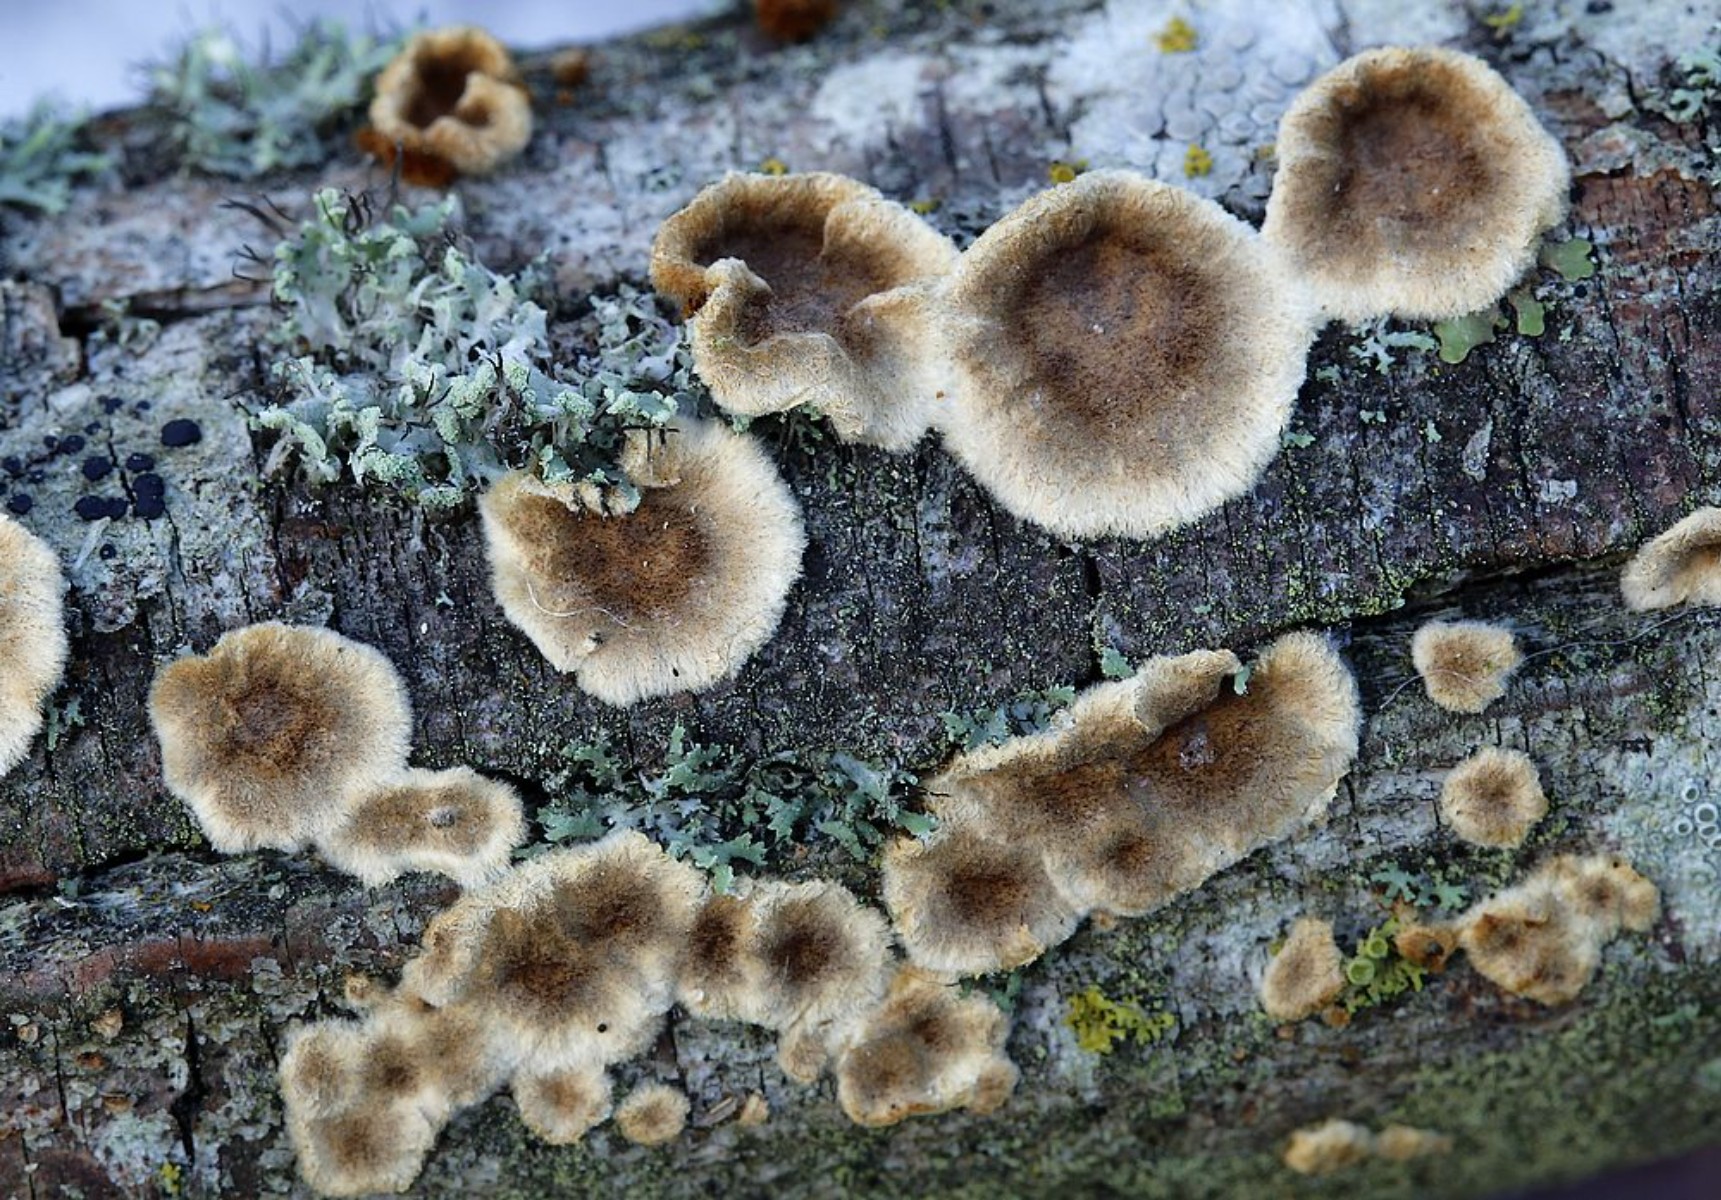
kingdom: Fungi
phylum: Basidiomycota
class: Agaricomycetes
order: Hymenochaetales
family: Hymenochaetaceae
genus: Hydnoporia
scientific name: Hydnoporia tabacina
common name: tobaksbrun ruslædersvamp
